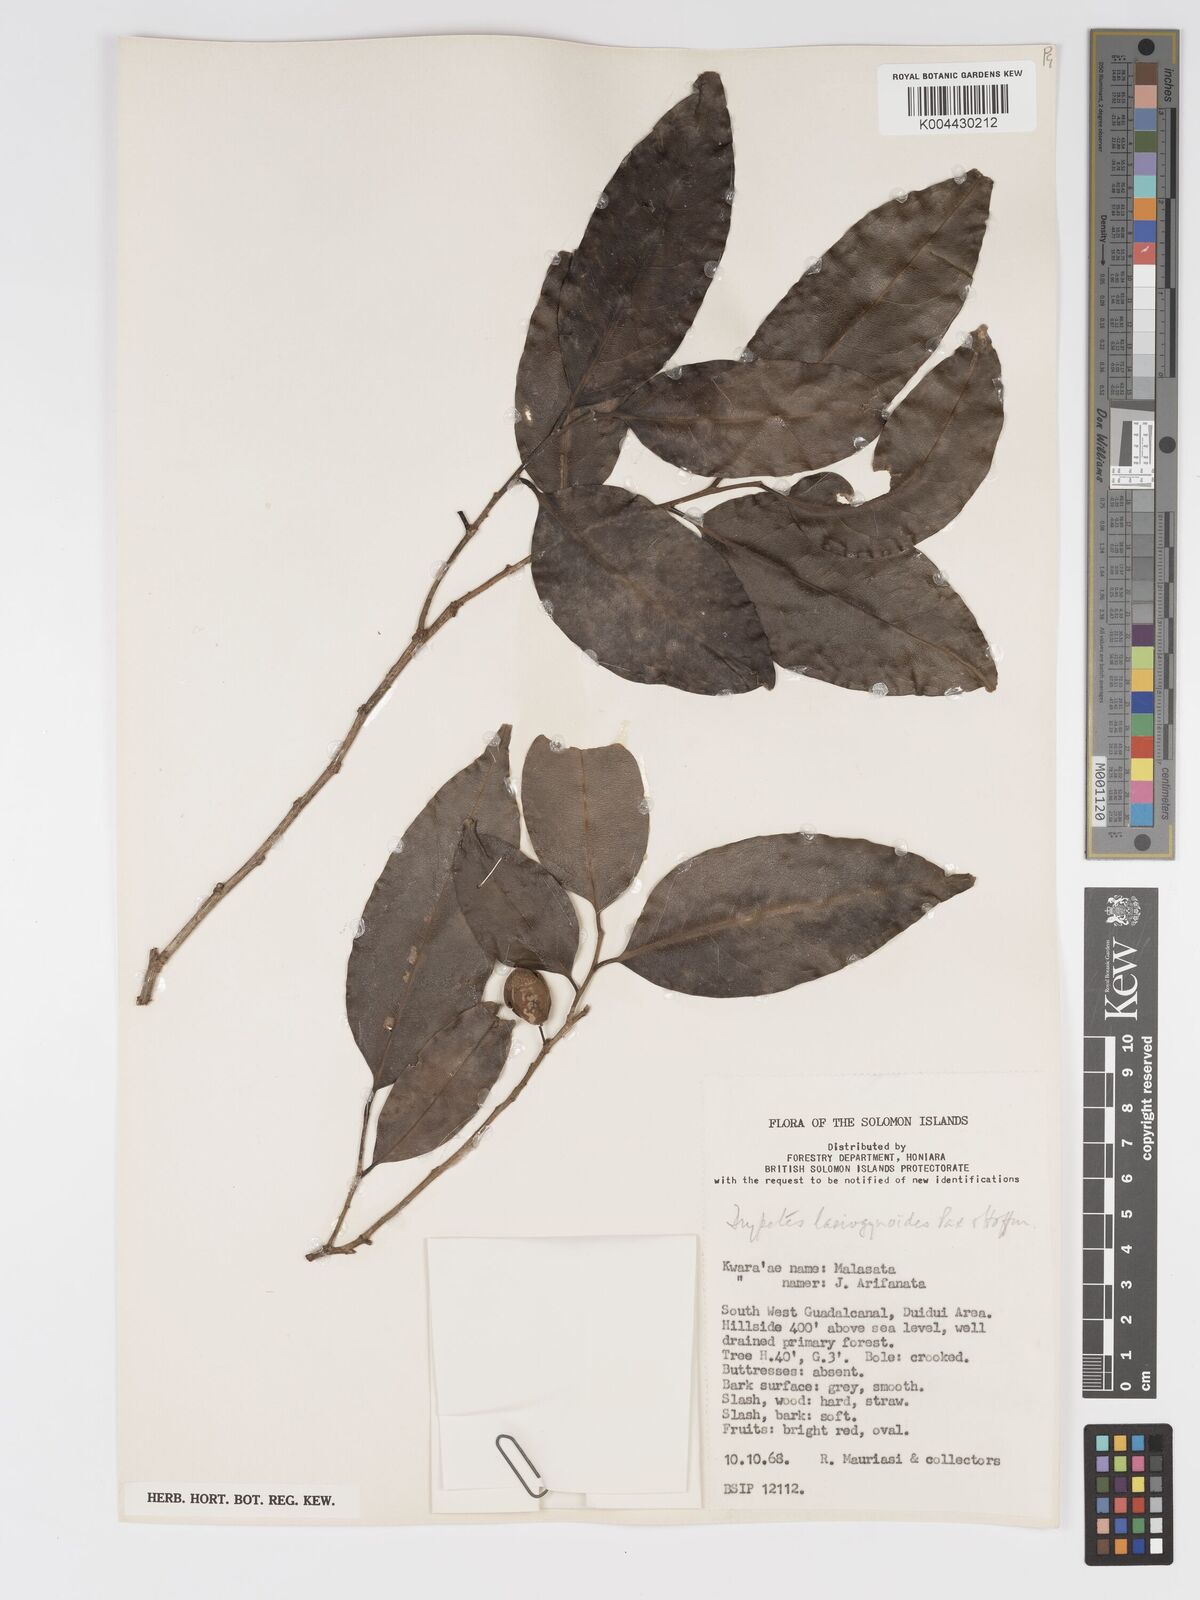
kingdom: Plantae
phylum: Tracheophyta
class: Magnoliopsida
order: Malpighiales
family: Putranjivaceae
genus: Drypetes
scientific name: Drypetes lasiogynoides
